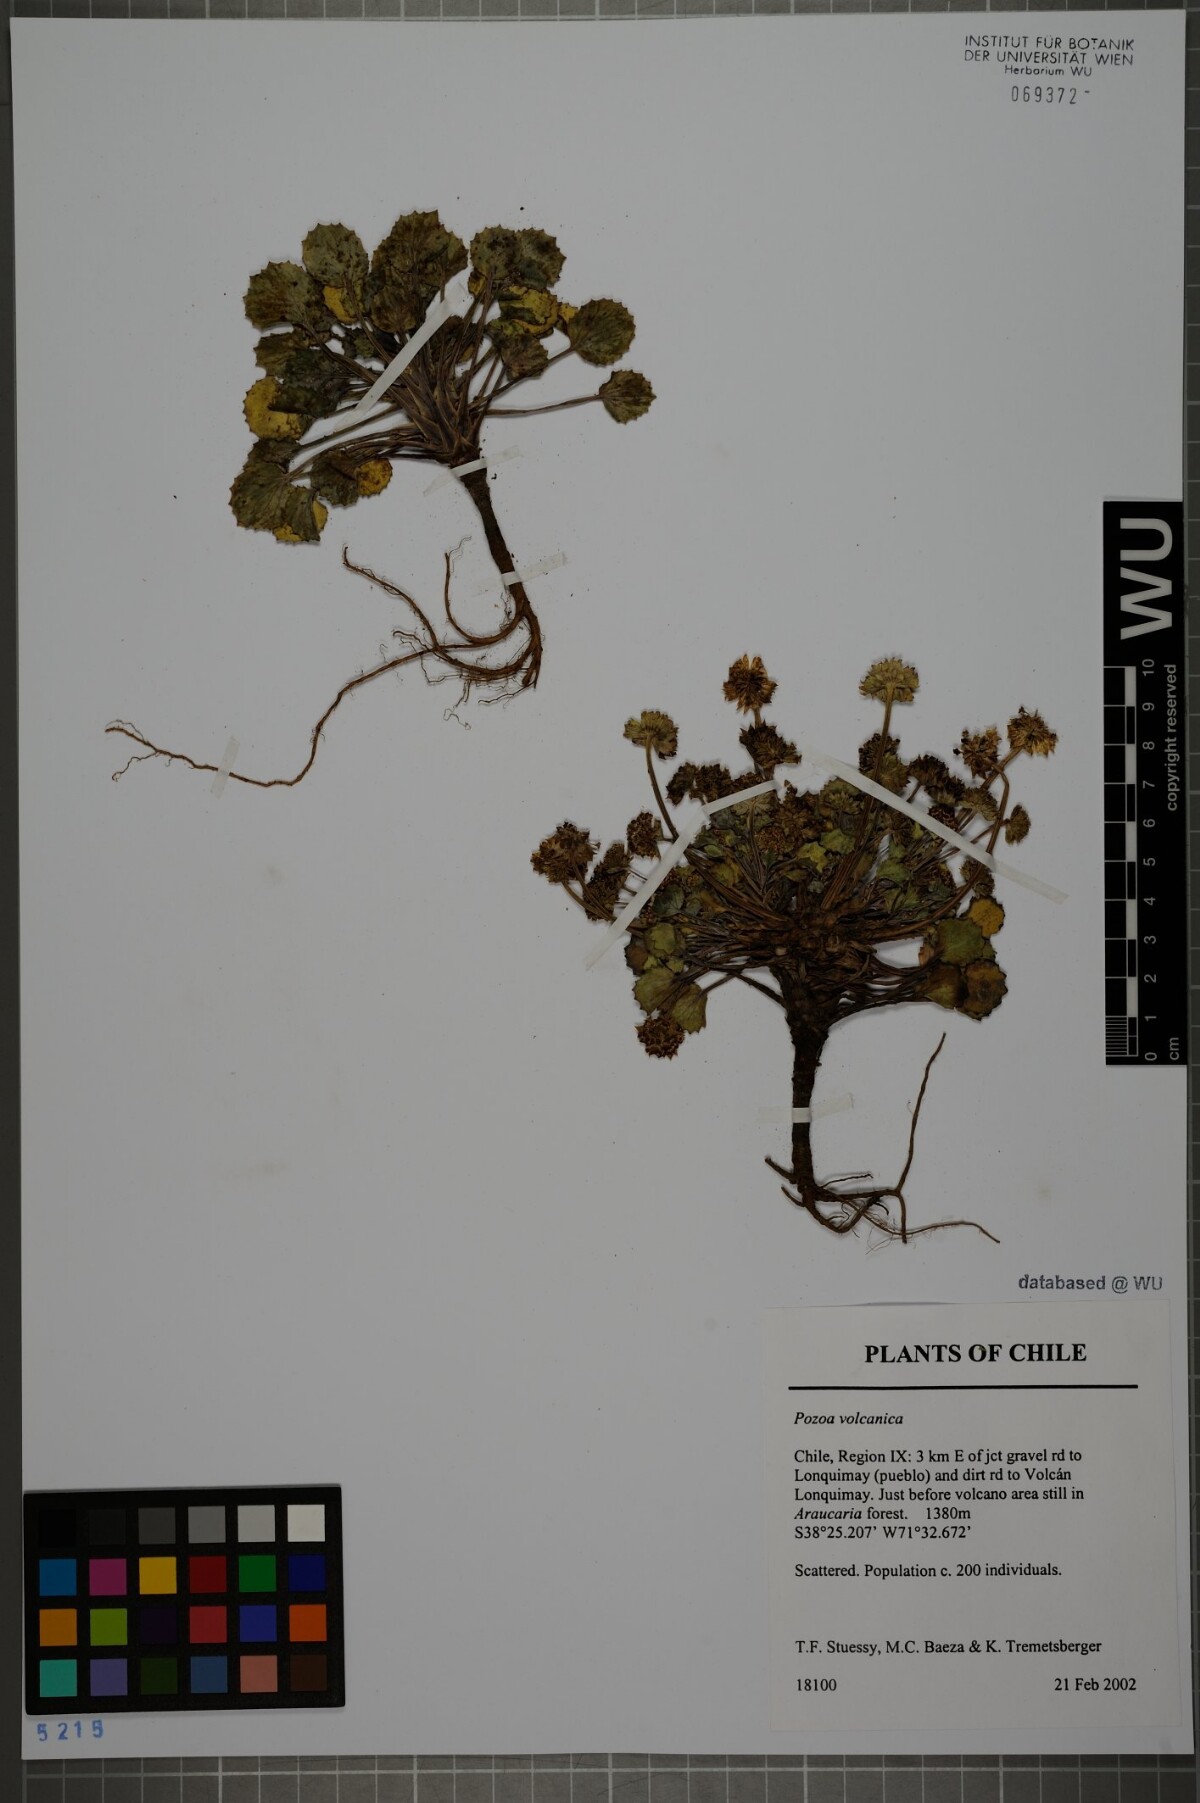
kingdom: Plantae
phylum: Tracheophyta
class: Magnoliopsida
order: Apiales
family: Apiaceae
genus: Pozoa
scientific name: Pozoa volcanica
